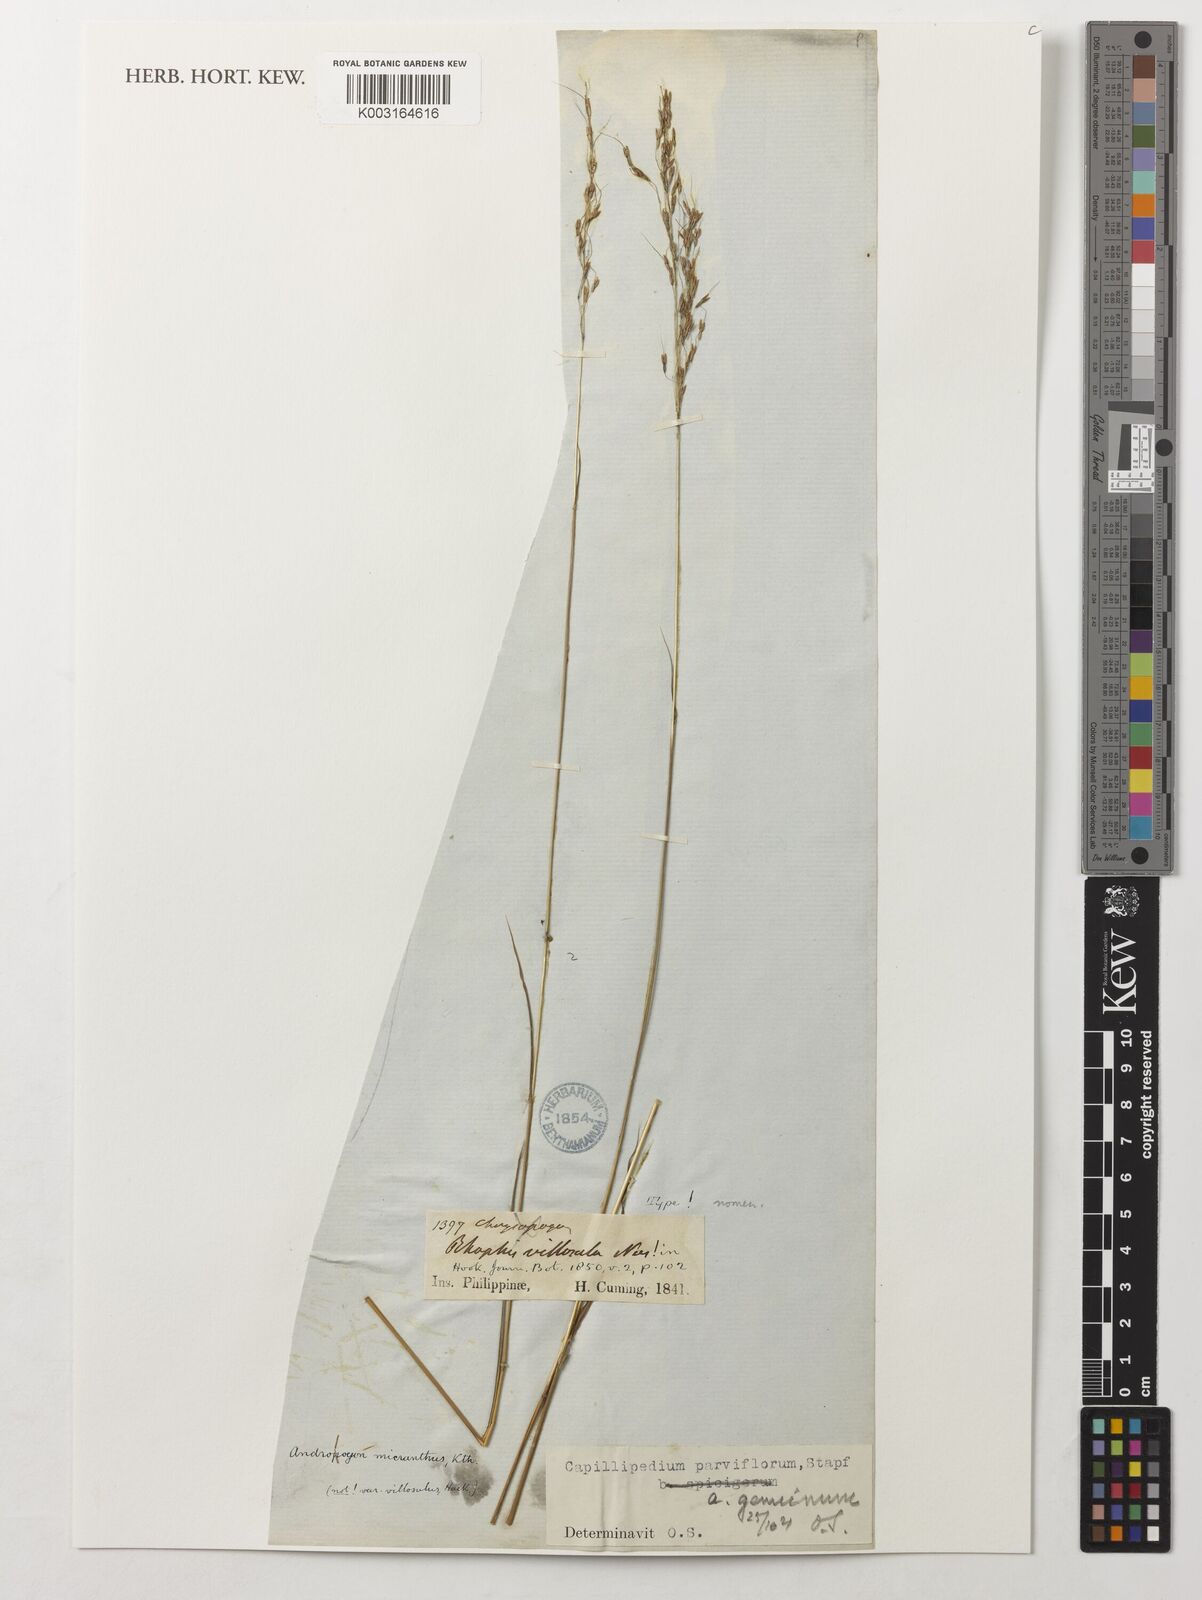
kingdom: Plantae
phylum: Tracheophyta
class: Liliopsida
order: Poales
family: Poaceae
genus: Capillipedium
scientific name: Capillipedium parviflorum
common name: Golden-beard
